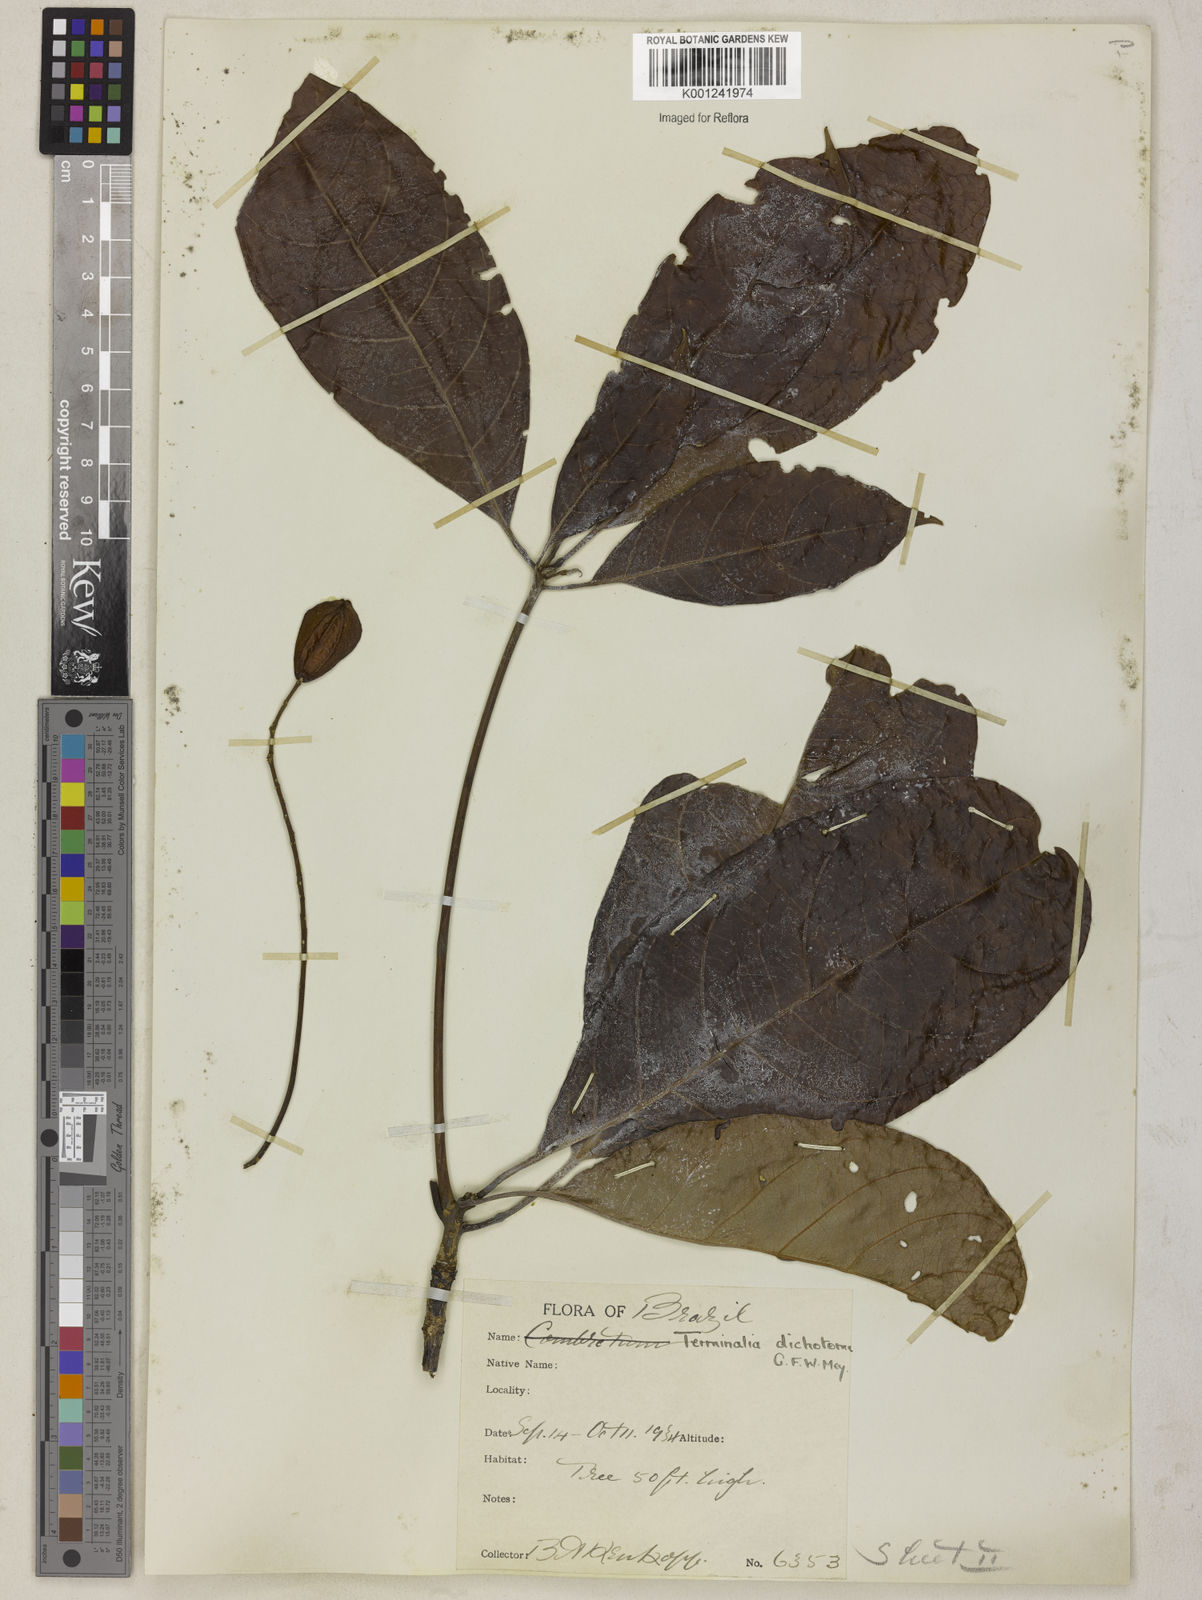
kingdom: Plantae
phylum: Tracheophyta
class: Magnoliopsida
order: Myrtales
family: Combretaceae
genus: Terminalia
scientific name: Terminalia dichotoma
